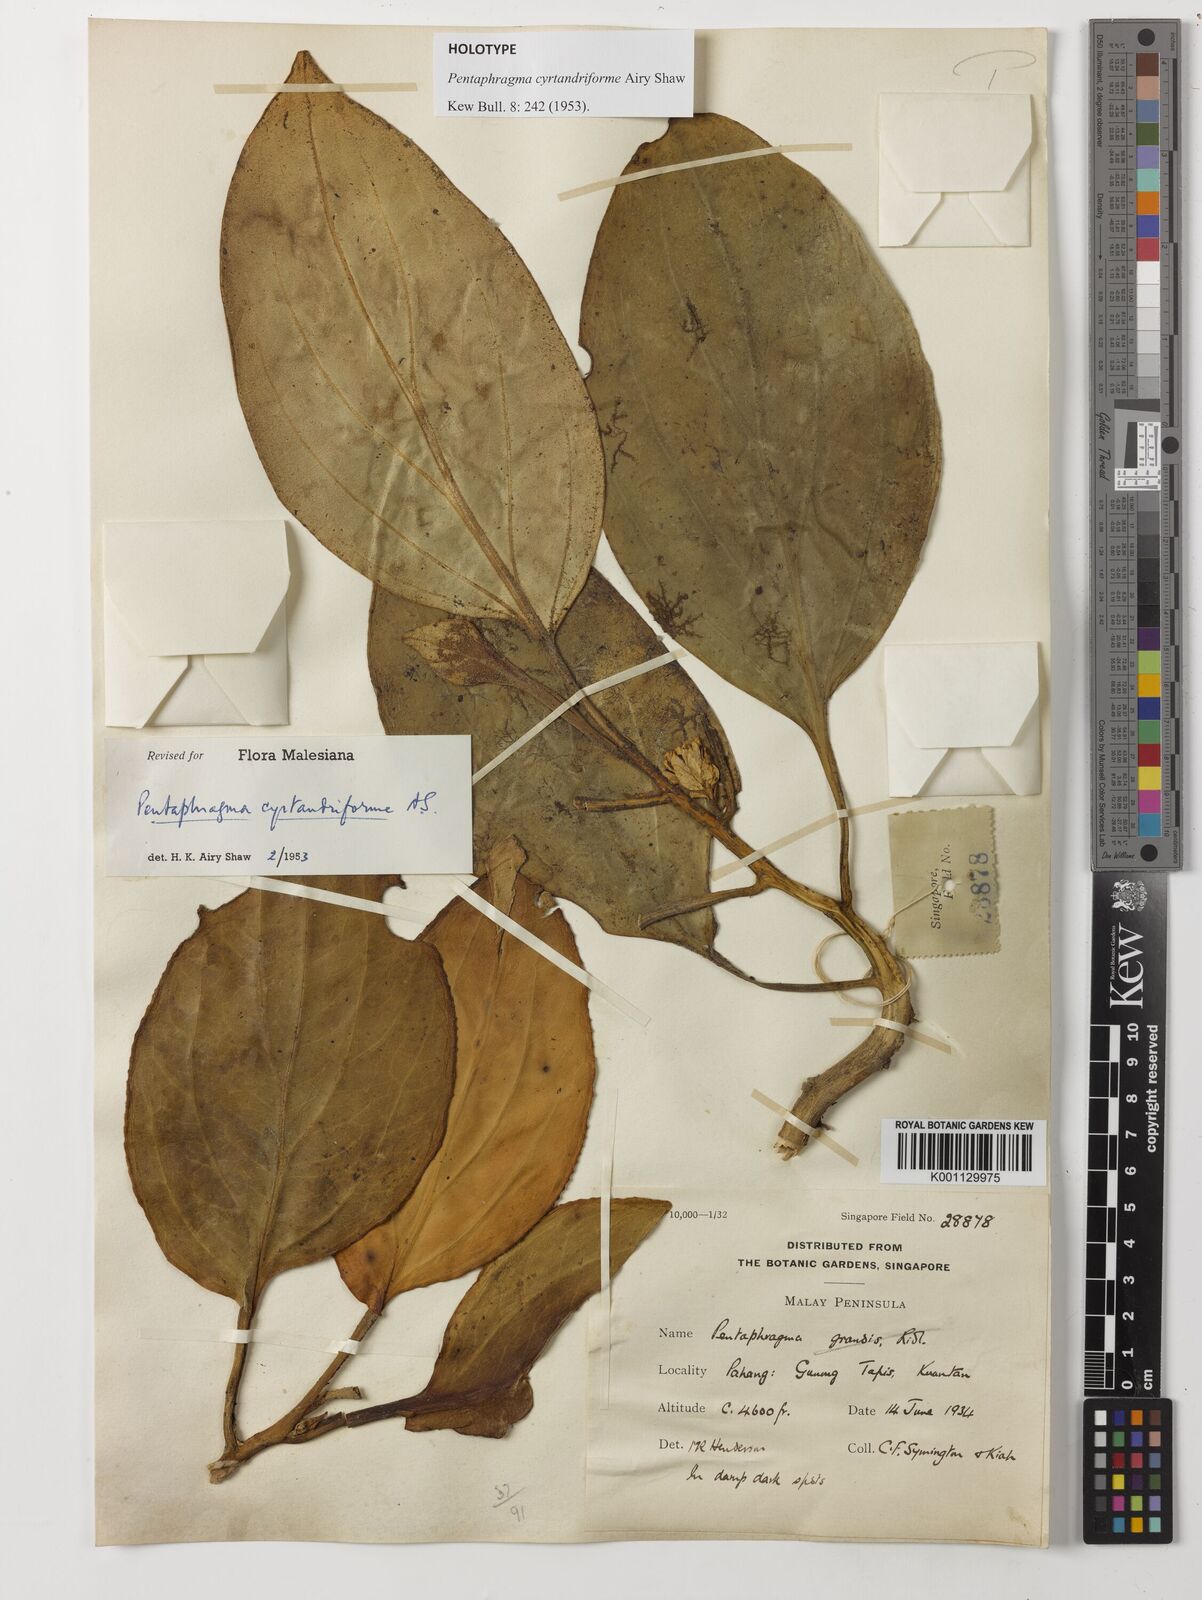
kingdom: Plantae
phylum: Tracheophyta
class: Magnoliopsida
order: Asterales
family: Pentaphragmataceae
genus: Pentaphragma
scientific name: Pentaphragma cyrtandriforme
